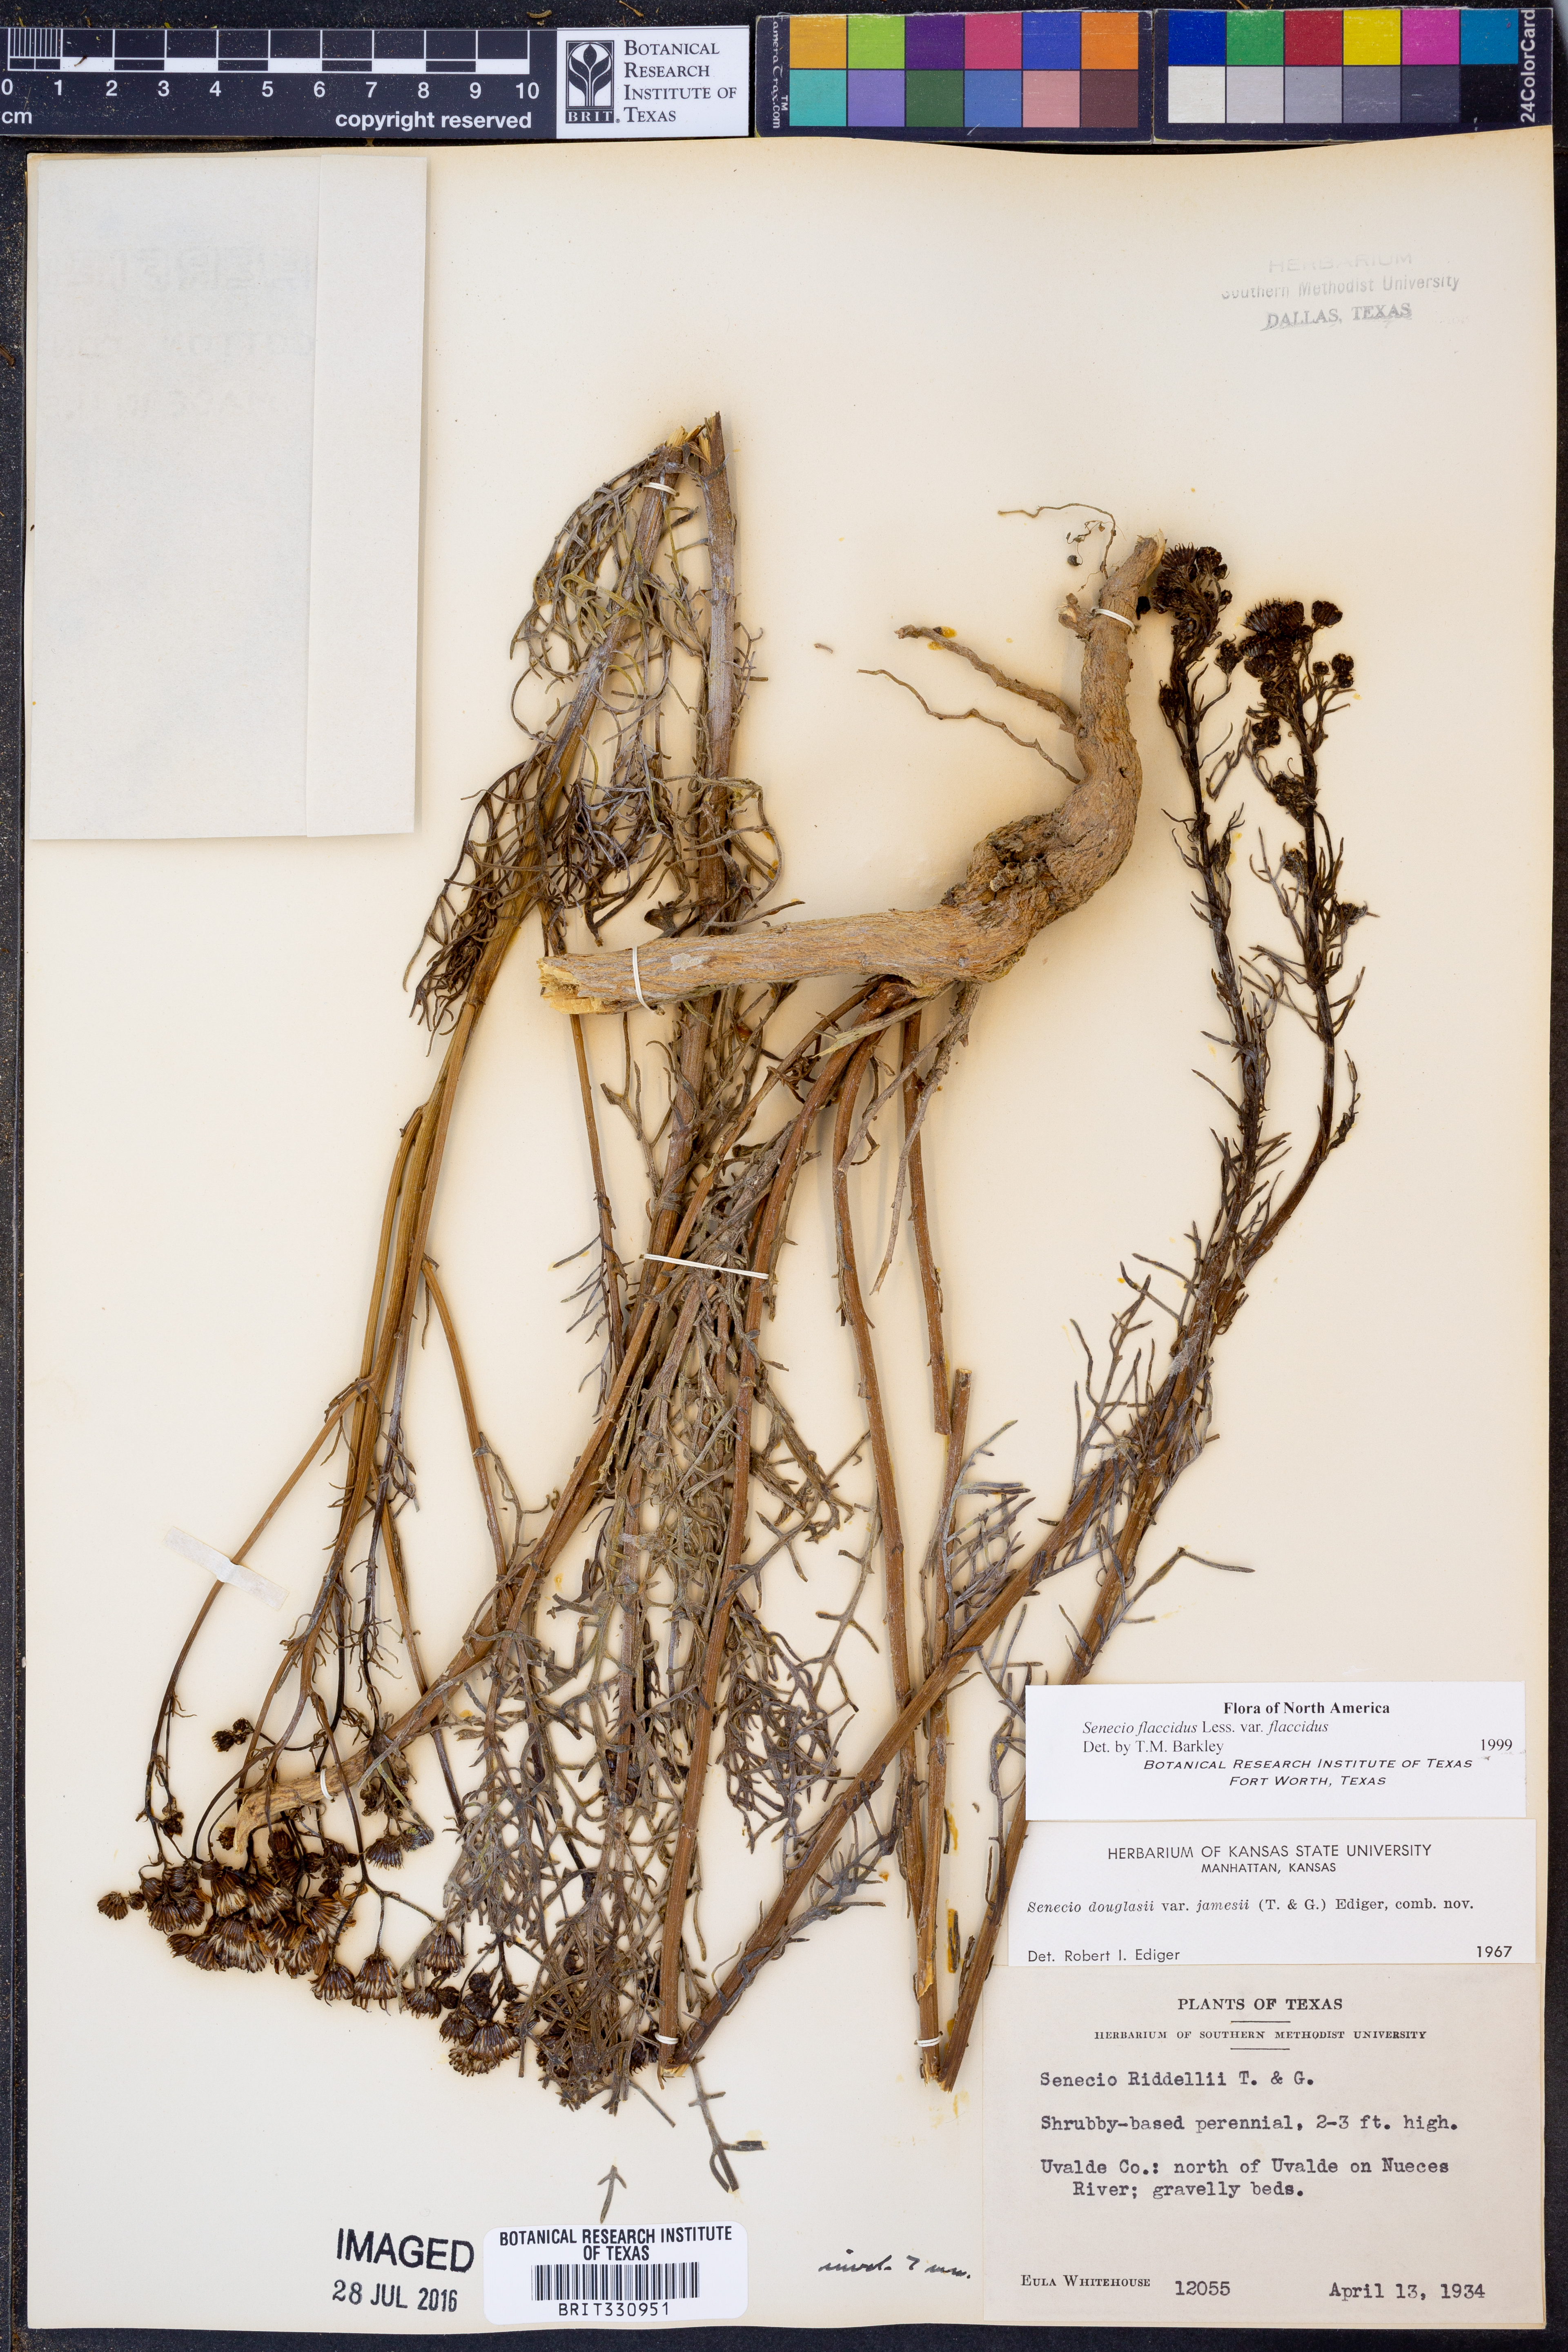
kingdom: Plantae
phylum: Tracheophyta
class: Magnoliopsida
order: Asterales
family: Asteraceae
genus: Senecio
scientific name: Senecio flaccidus
